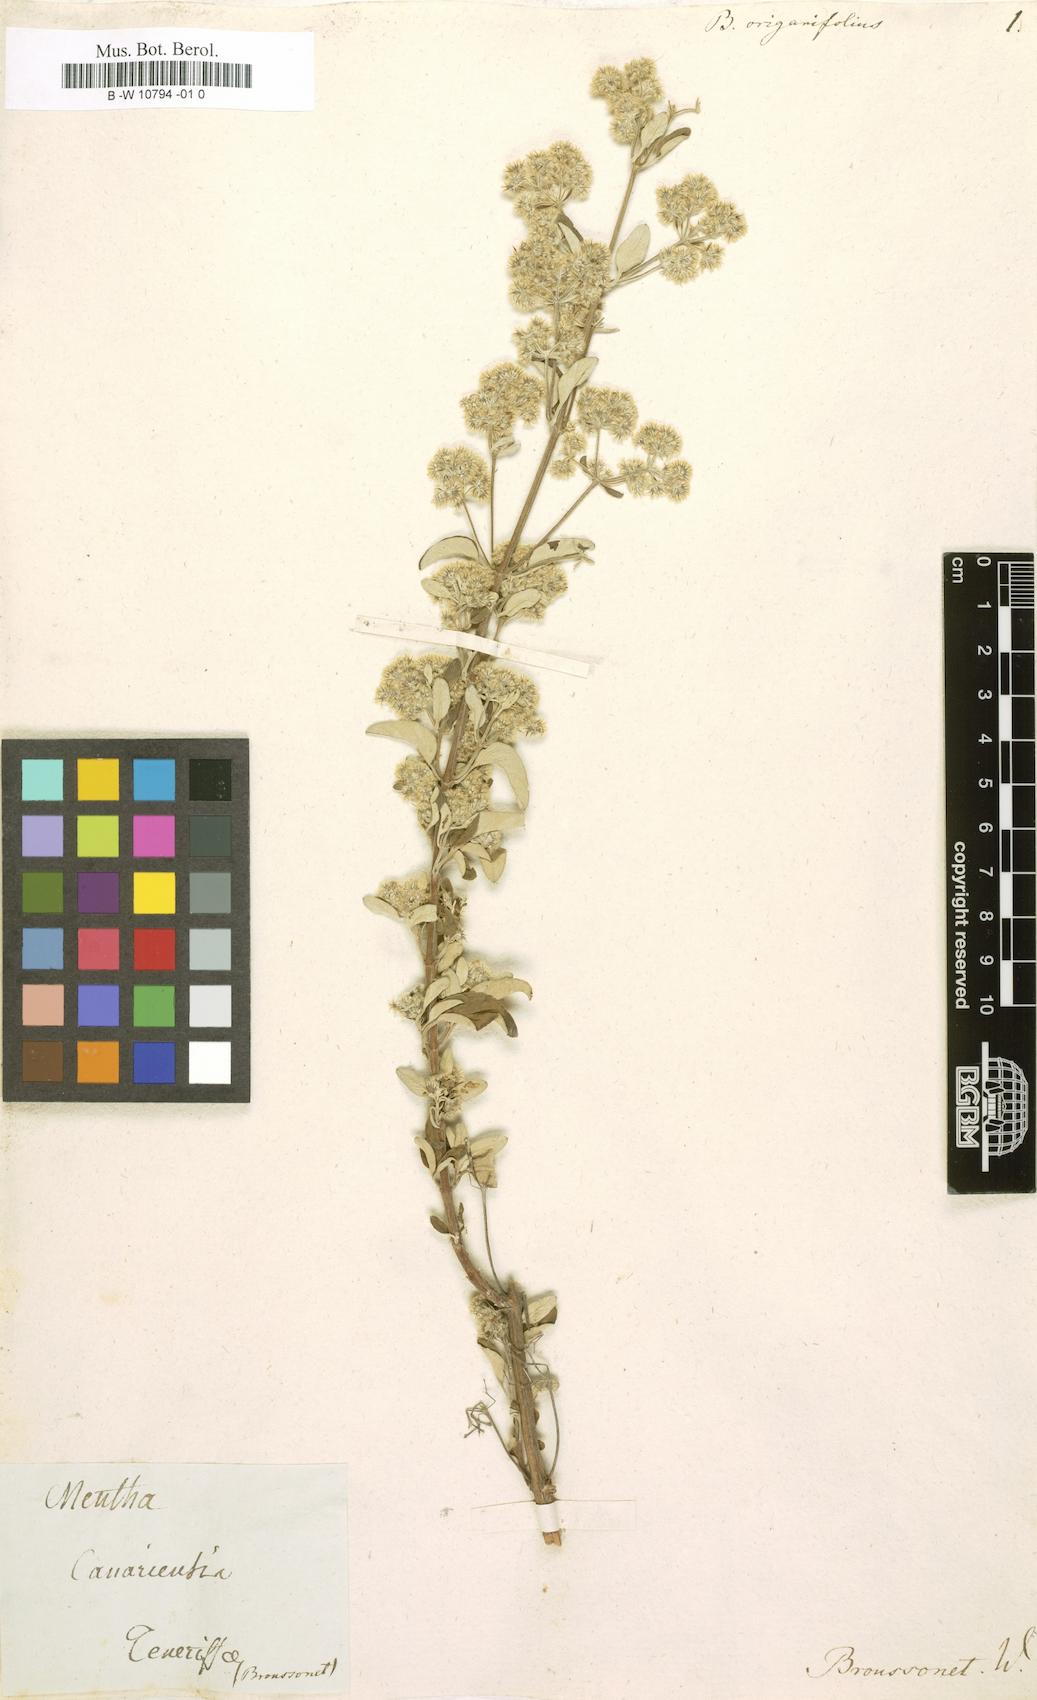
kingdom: Plantae
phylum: Tracheophyta
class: Magnoliopsida
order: Lamiales
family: Lamiaceae
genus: Bystropogon
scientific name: Bystropogon origanifolius
